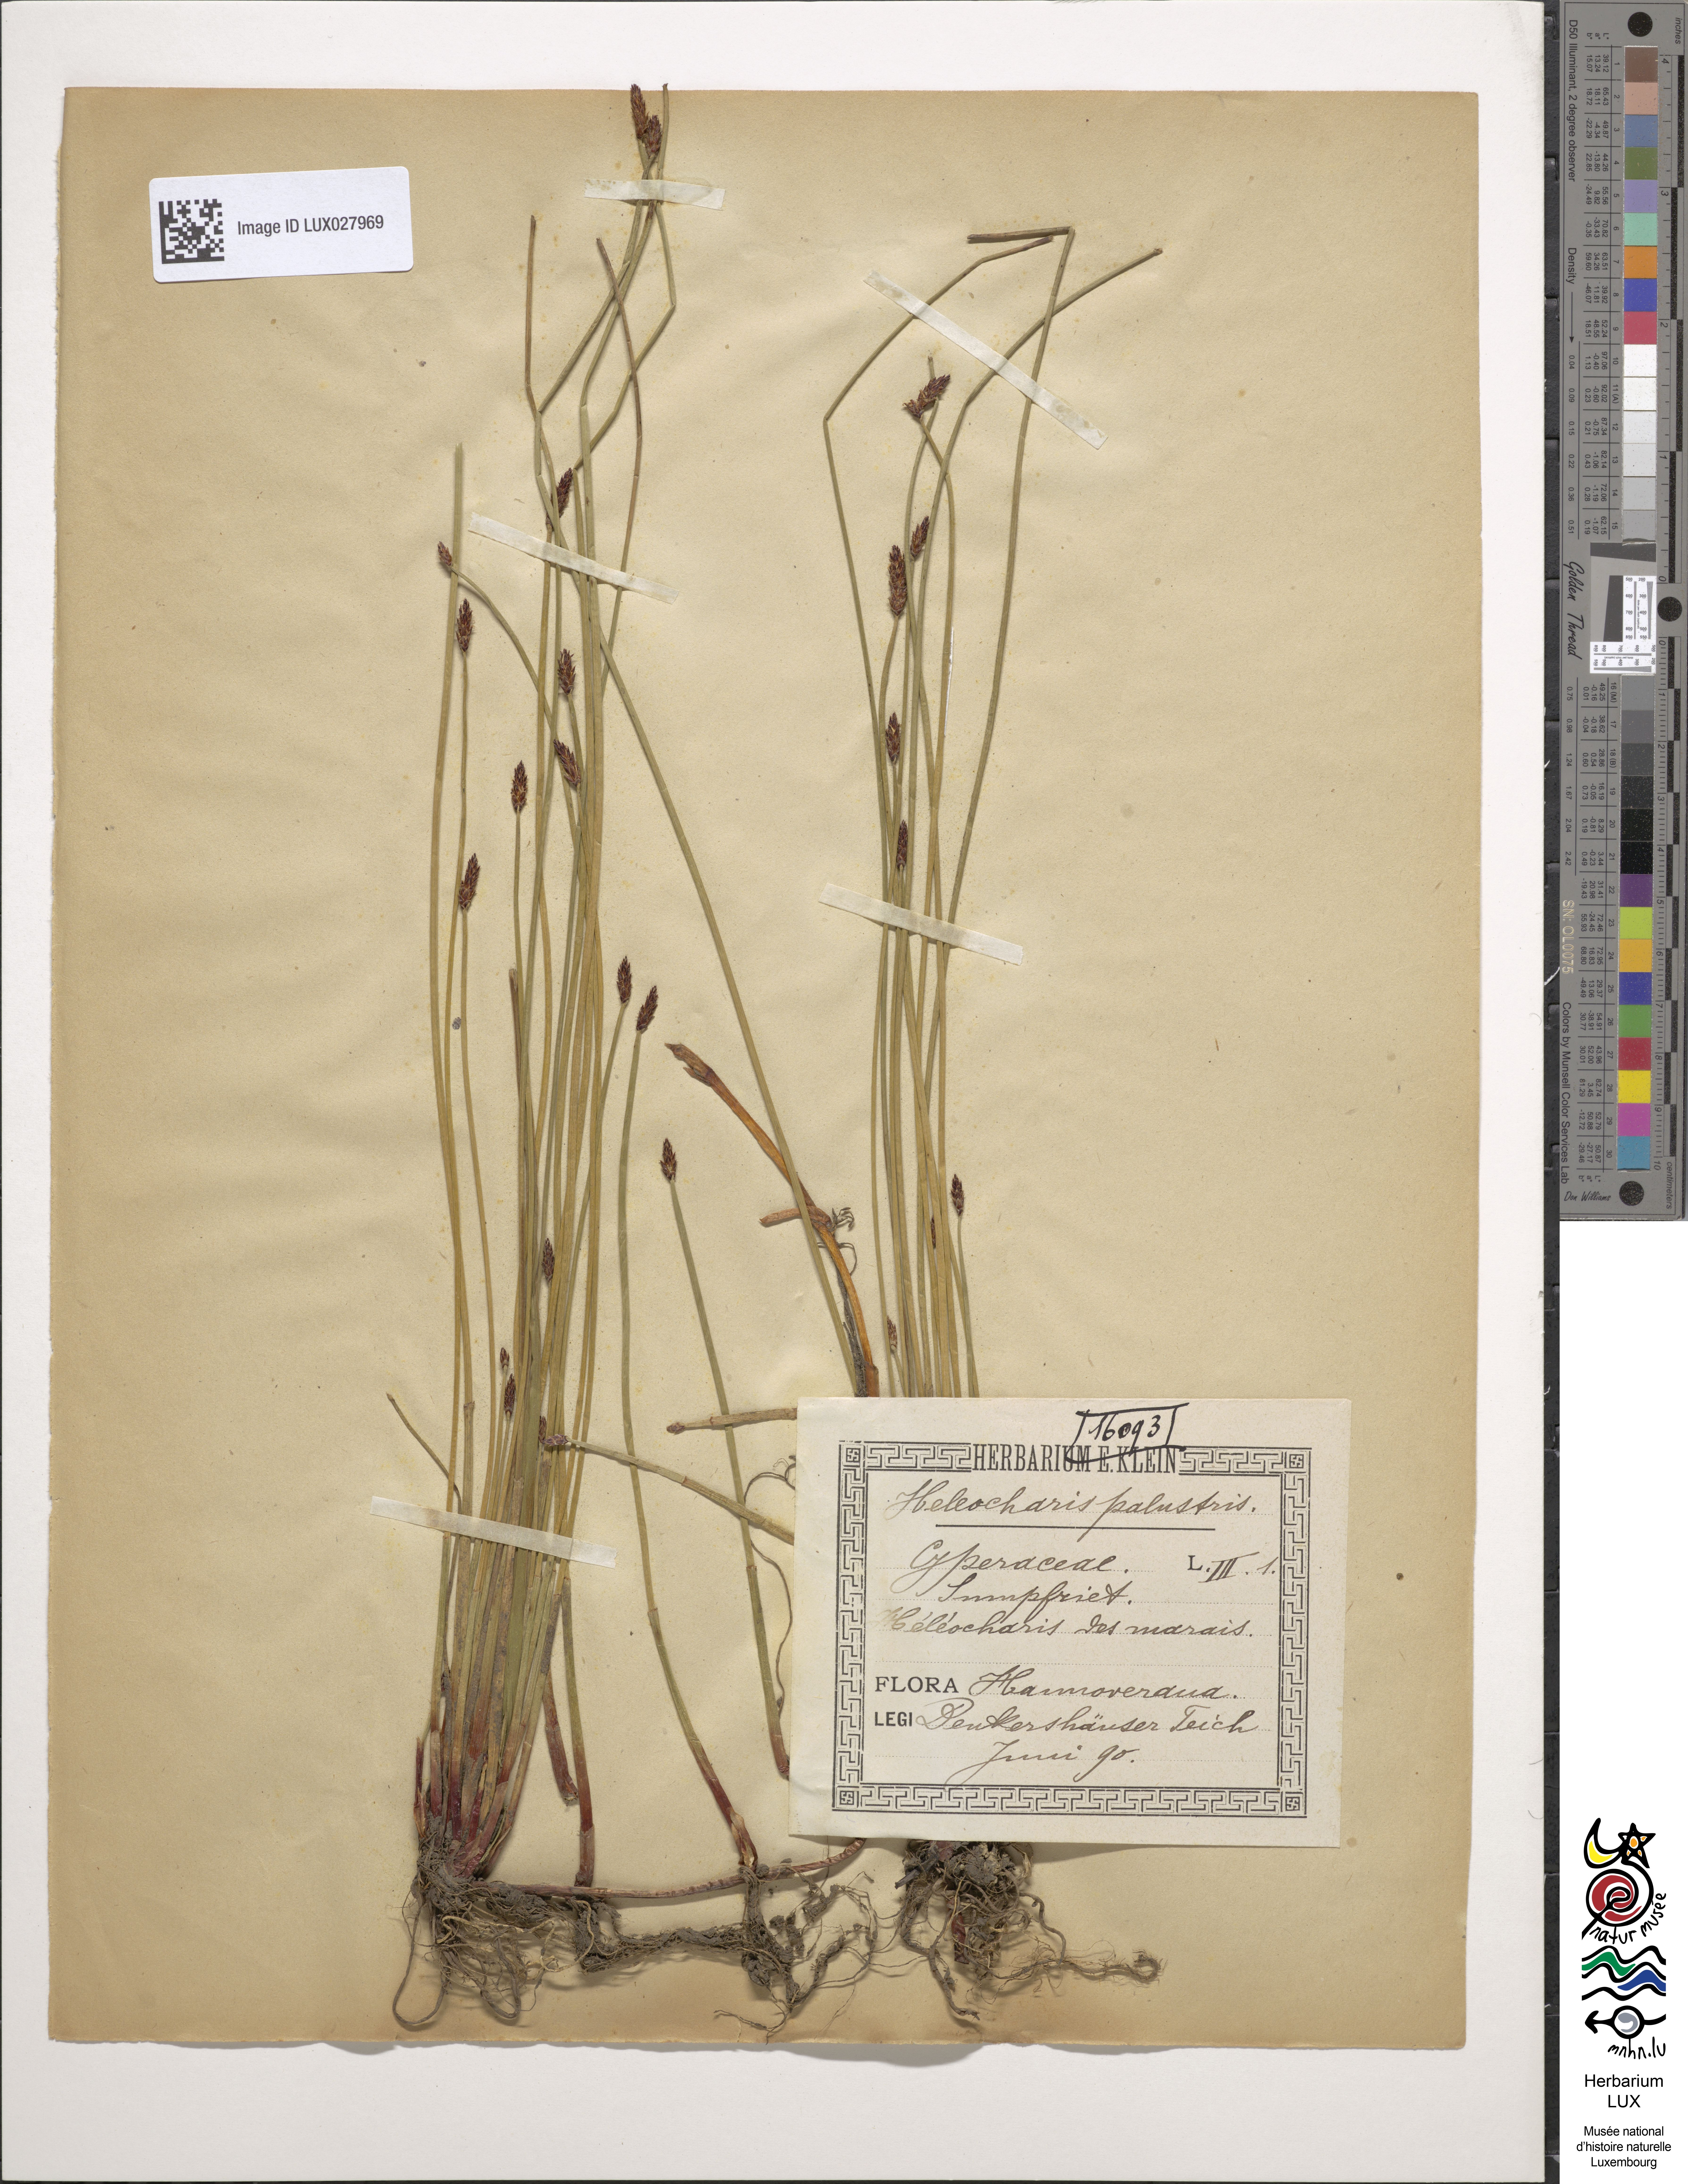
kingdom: Plantae
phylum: Tracheophyta
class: Liliopsida
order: Poales
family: Cyperaceae
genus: Eleocharis
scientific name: Eleocharis palustris
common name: Common spike-rush
